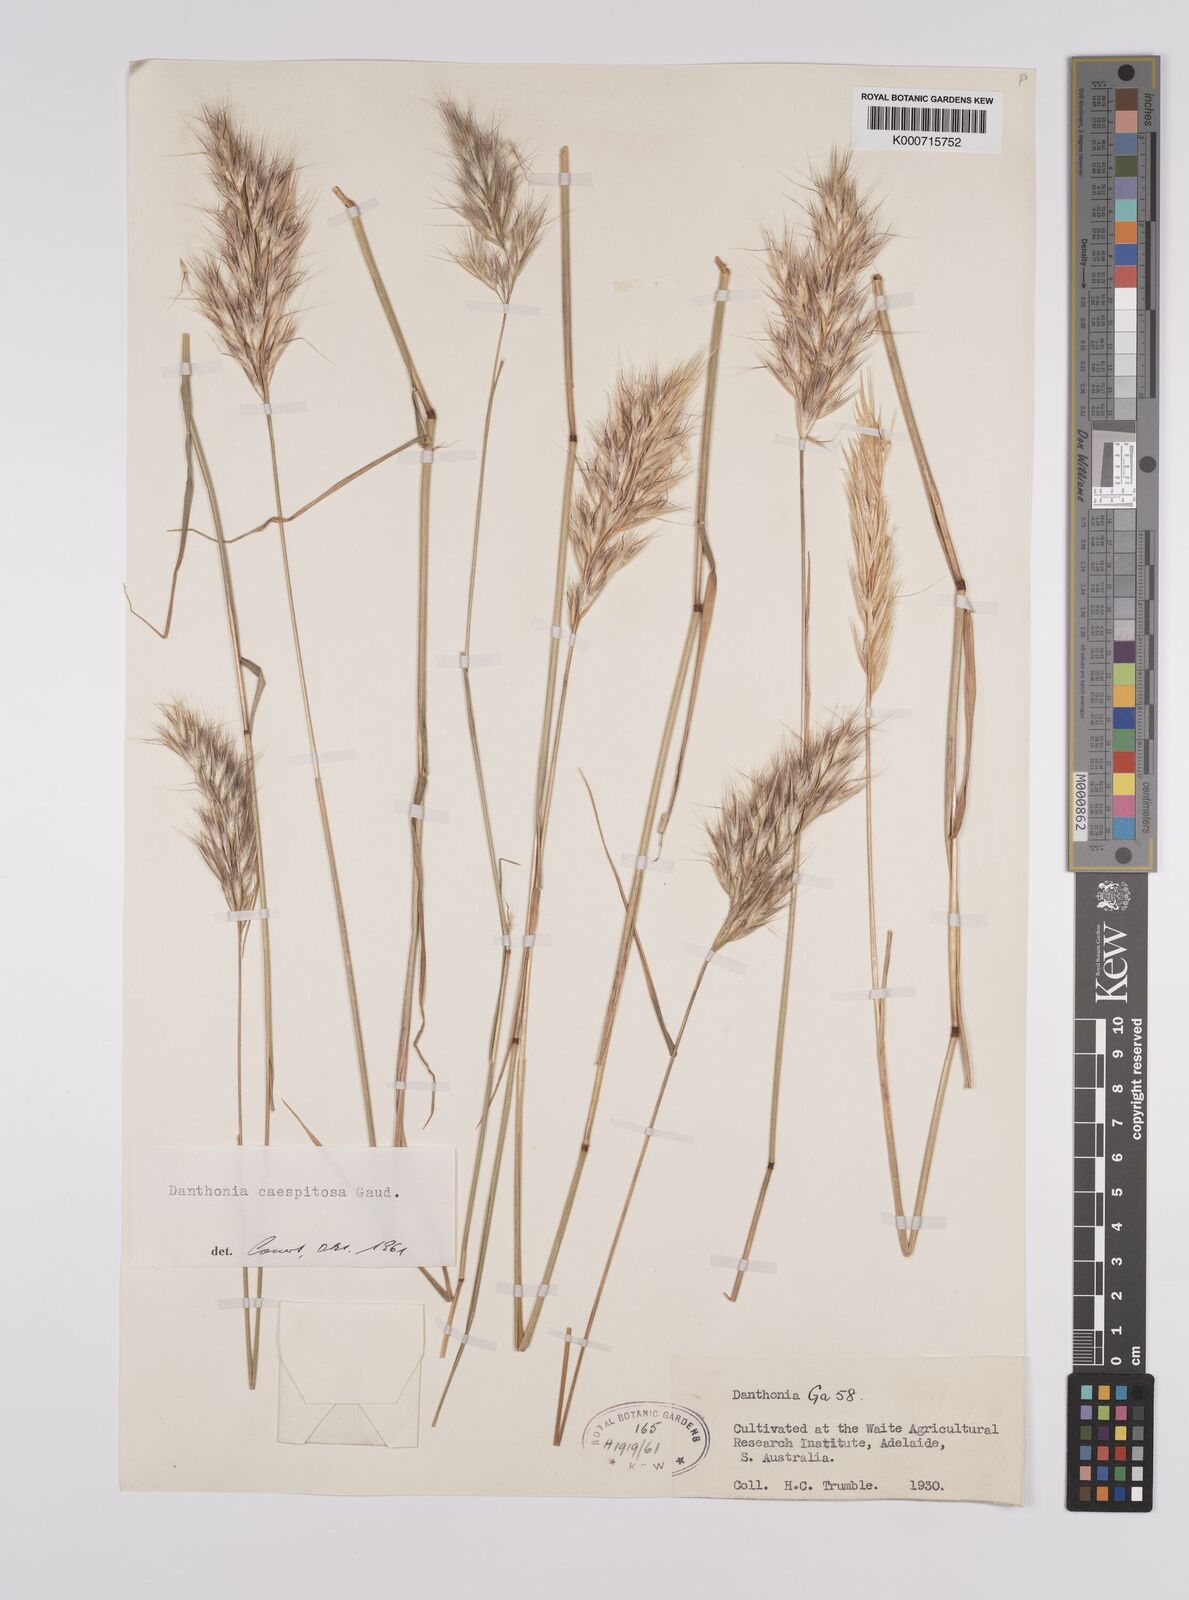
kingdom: Plantae
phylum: Tracheophyta
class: Liliopsida
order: Poales
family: Poaceae
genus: Rytidosperma
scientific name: Rytidosperma caespitosum
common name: Tufted wallaby grass
